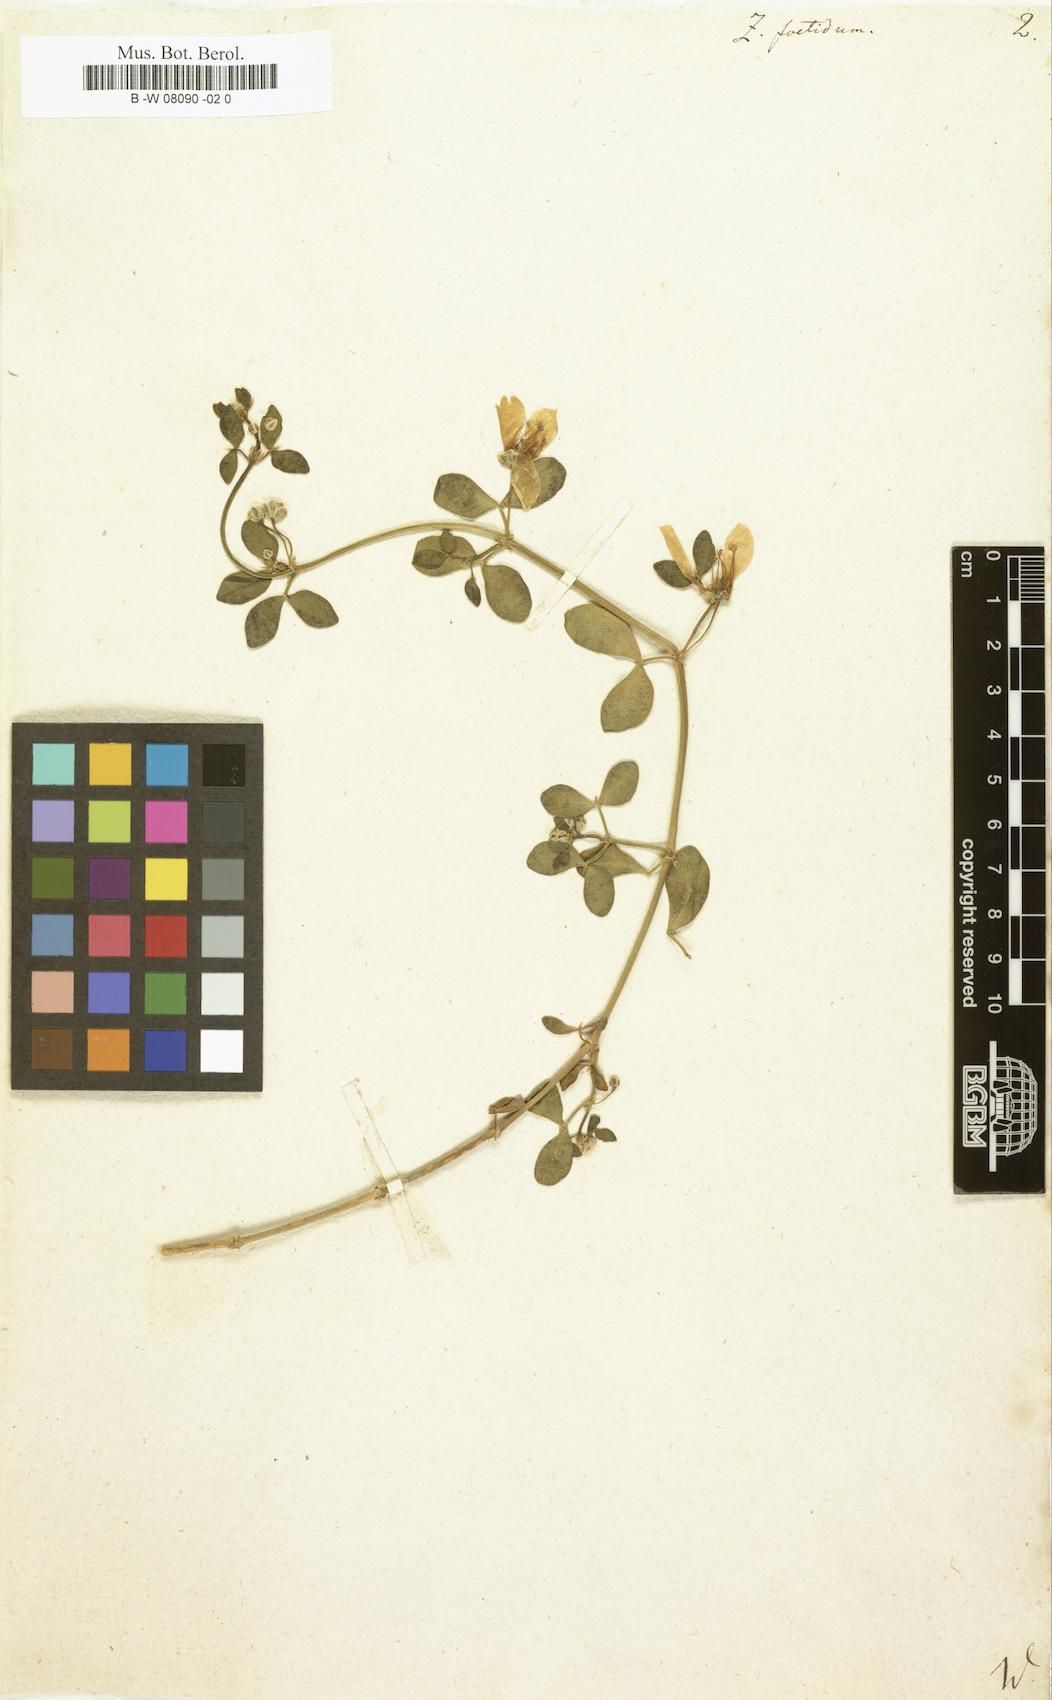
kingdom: Plantae
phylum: Tracheophyta
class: Magnoliopsida
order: Zygophyllales
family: Zygophyllaceae
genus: Roepera
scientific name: Roepera debilis
